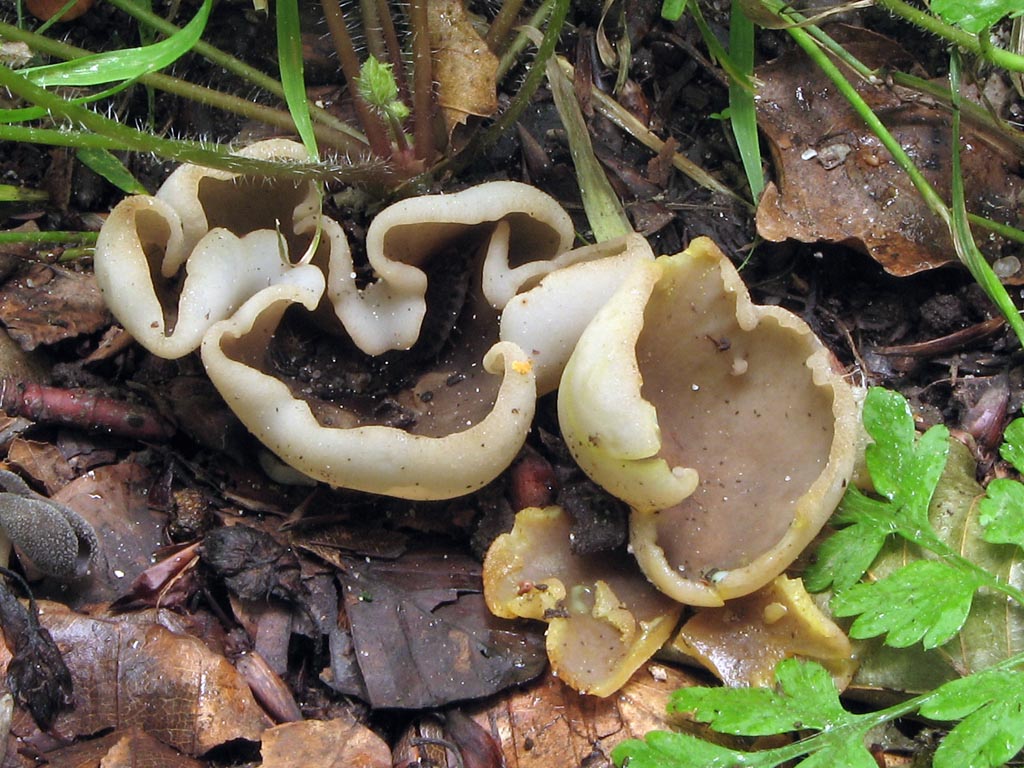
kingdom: Fungi
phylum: Ascomycota
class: Pezizomycetes
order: Pezizales
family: Pezizaceae
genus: Paragalactinia
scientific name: Paragalactinia succosa
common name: gulmælket bægersvamp
